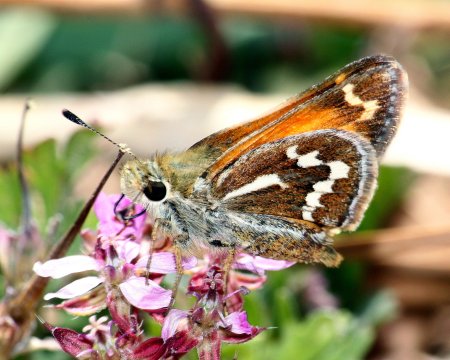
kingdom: Animalia
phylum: Arthropoda
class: Insecta
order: Lepidoptera
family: Hesperiidae
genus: Stinga
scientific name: Stinga morrisoni
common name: Morrison's Skipper
